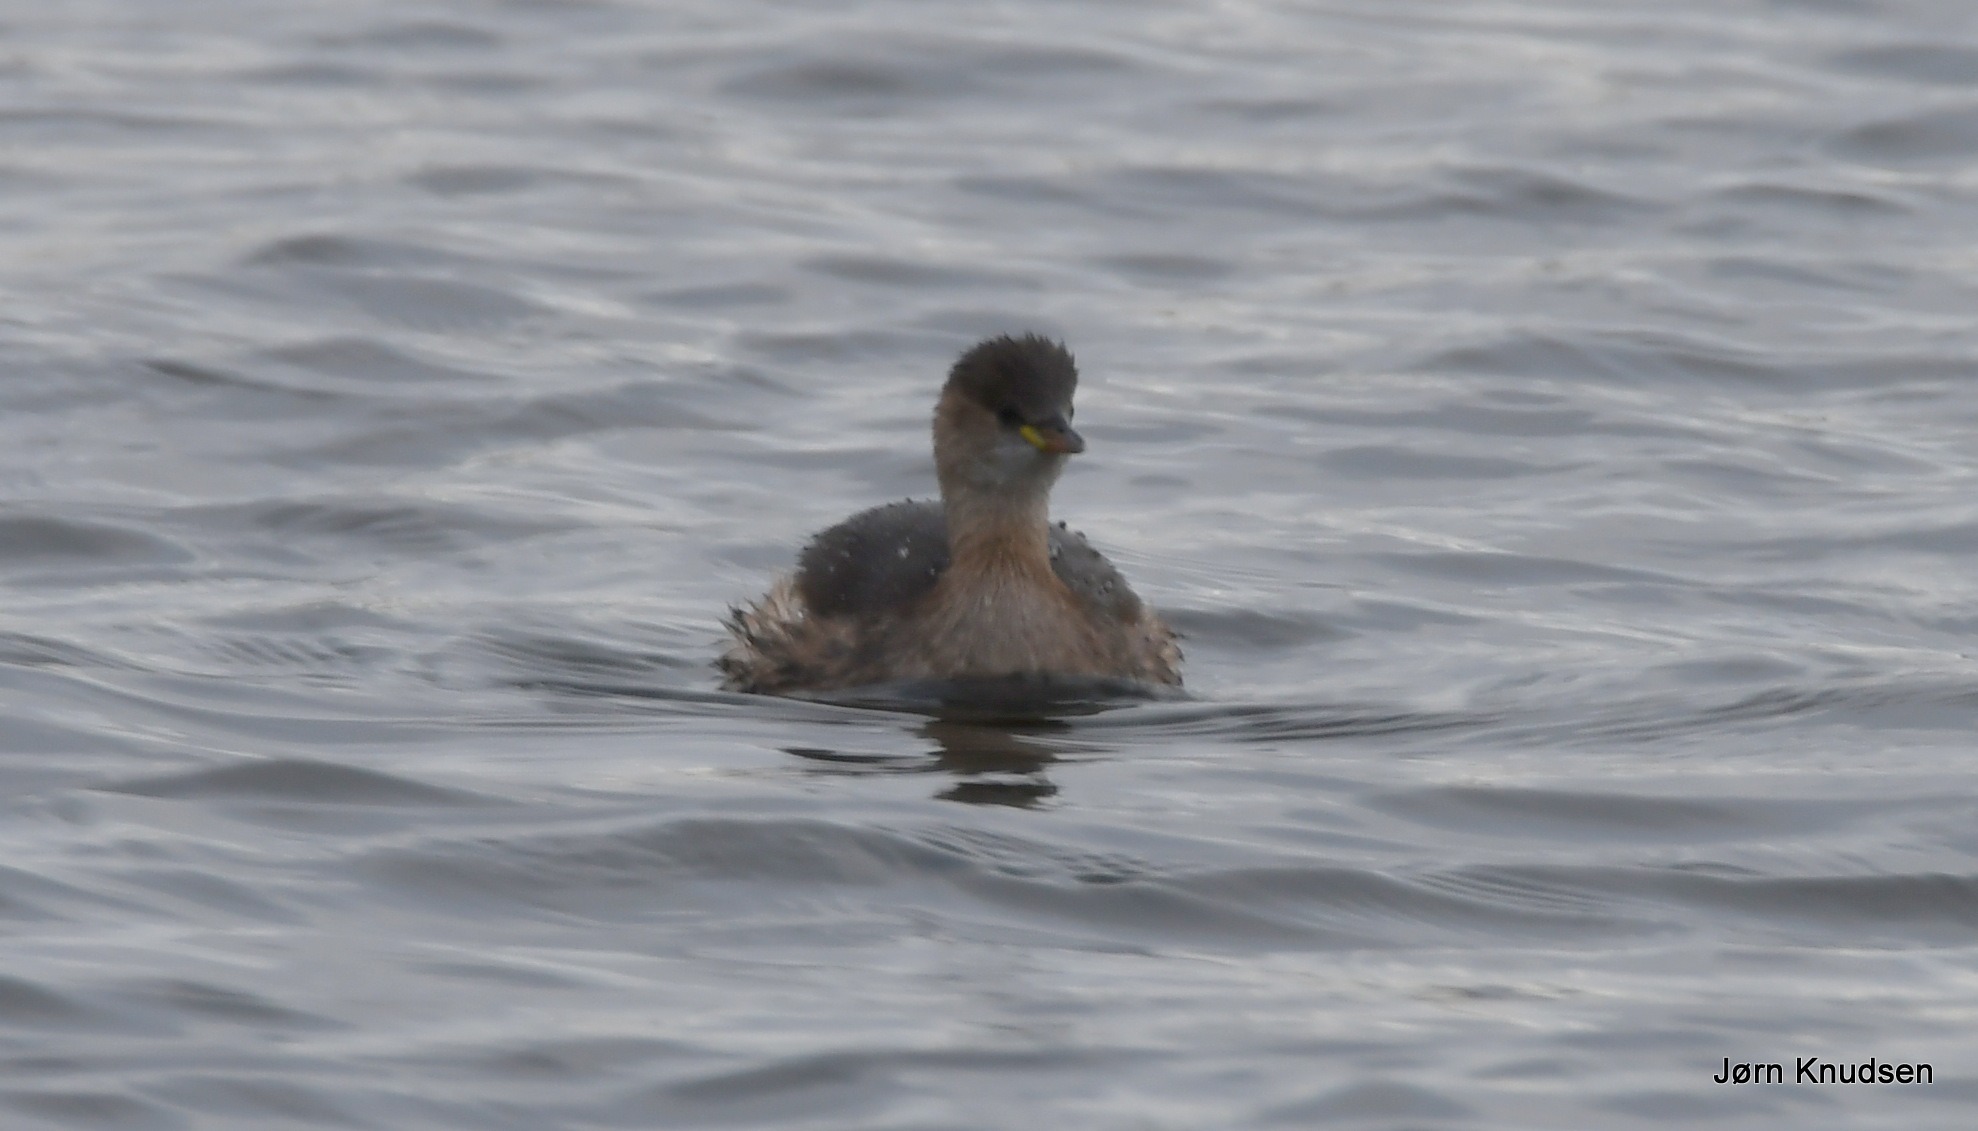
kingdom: Animalia
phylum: Chordata
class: Aves
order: Podicipediformes
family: Podicipedidae
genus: Tachybaptus
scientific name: Tachybaptus ruficollis
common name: Lille lappedykker
